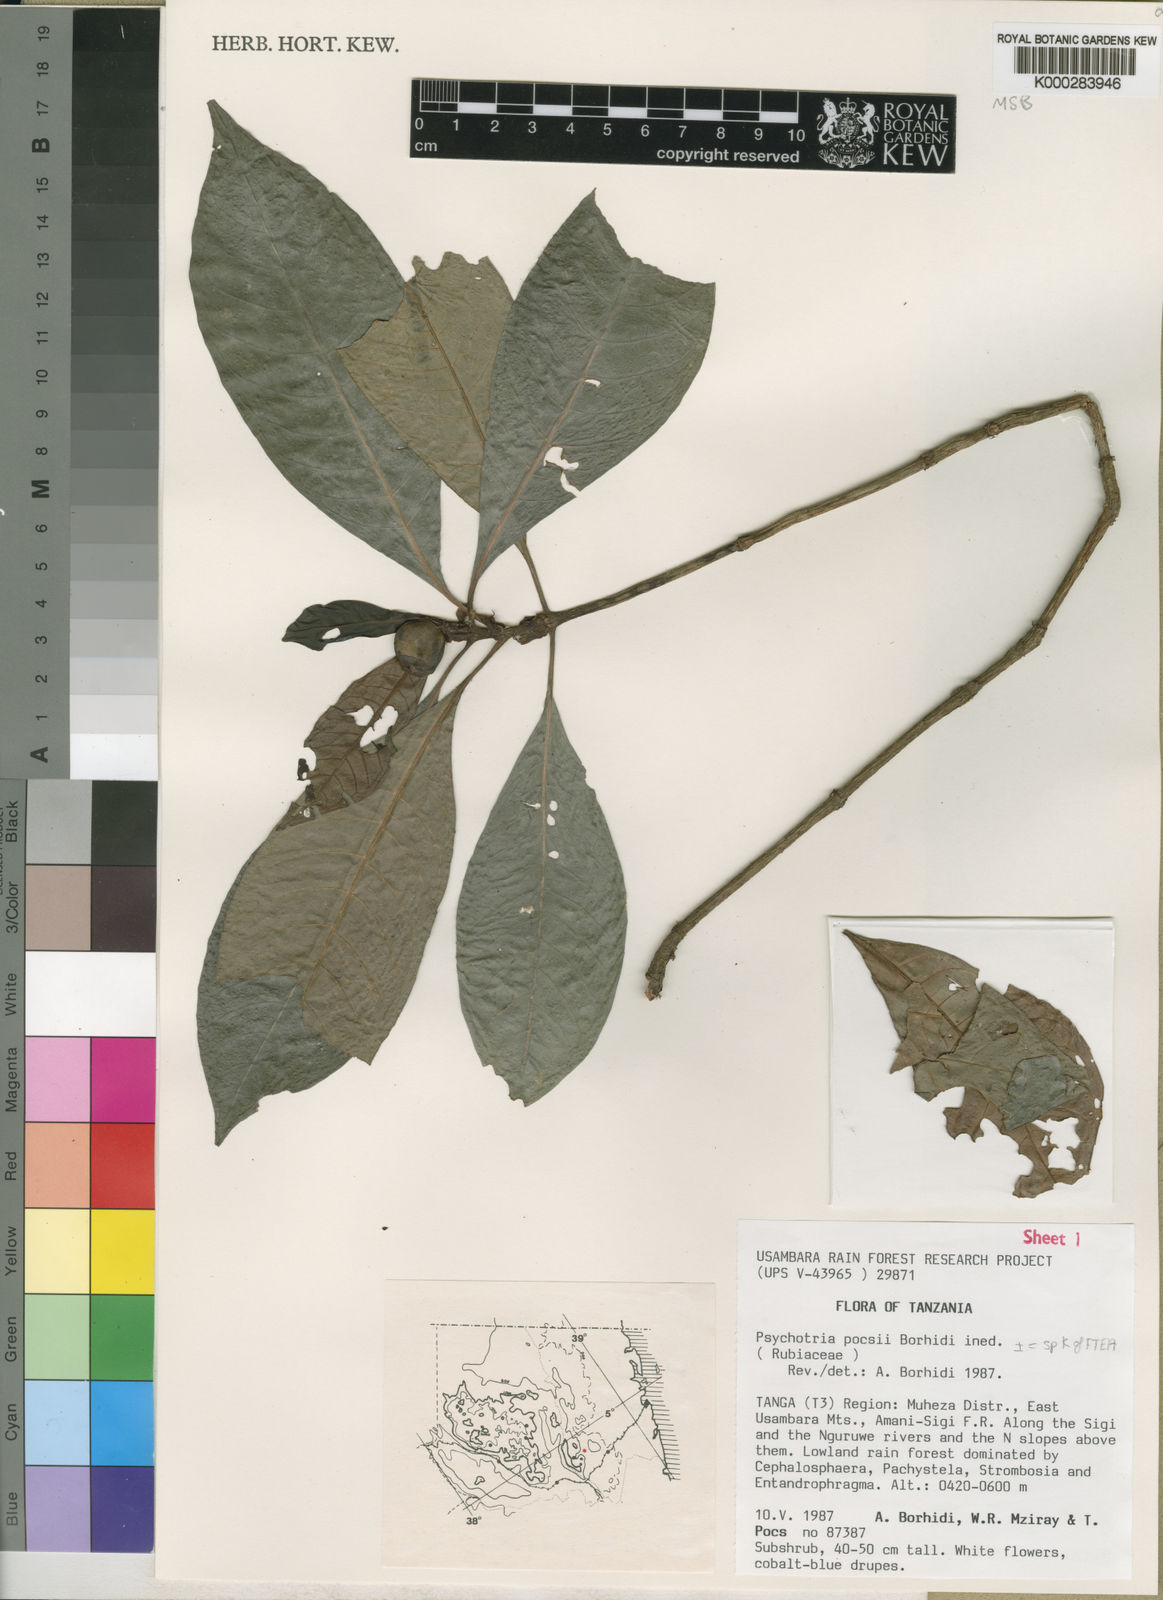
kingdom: Plantae
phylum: Tracheophyta
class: Magnoliopsida
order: Gentianales
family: Rubiaceae
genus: Psychotria
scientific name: Psychotria pocsii
